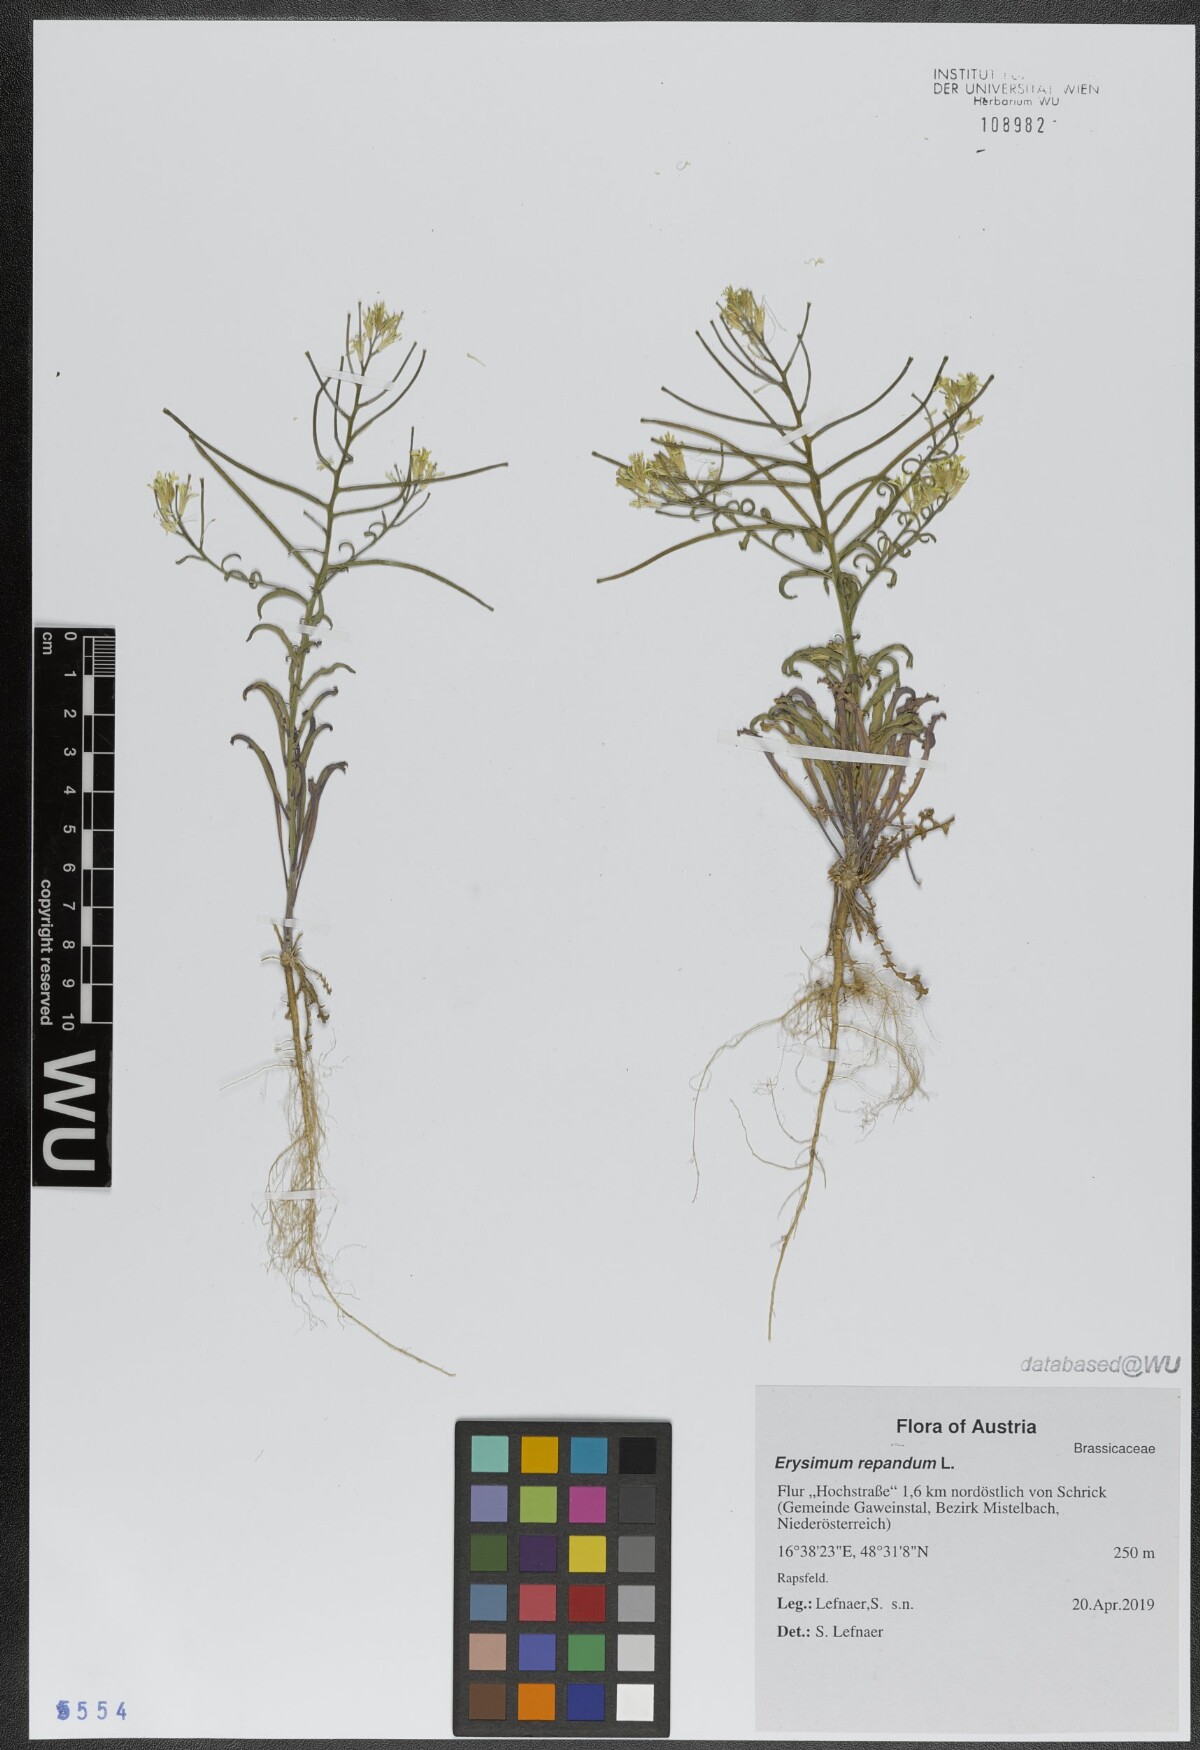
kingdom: Plantae
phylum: Tracheophyta
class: Magnoliopsida
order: Brassicales
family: Brassicaceae
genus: Erysimum
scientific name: Erysimum repandum
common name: Spreading wallflower
